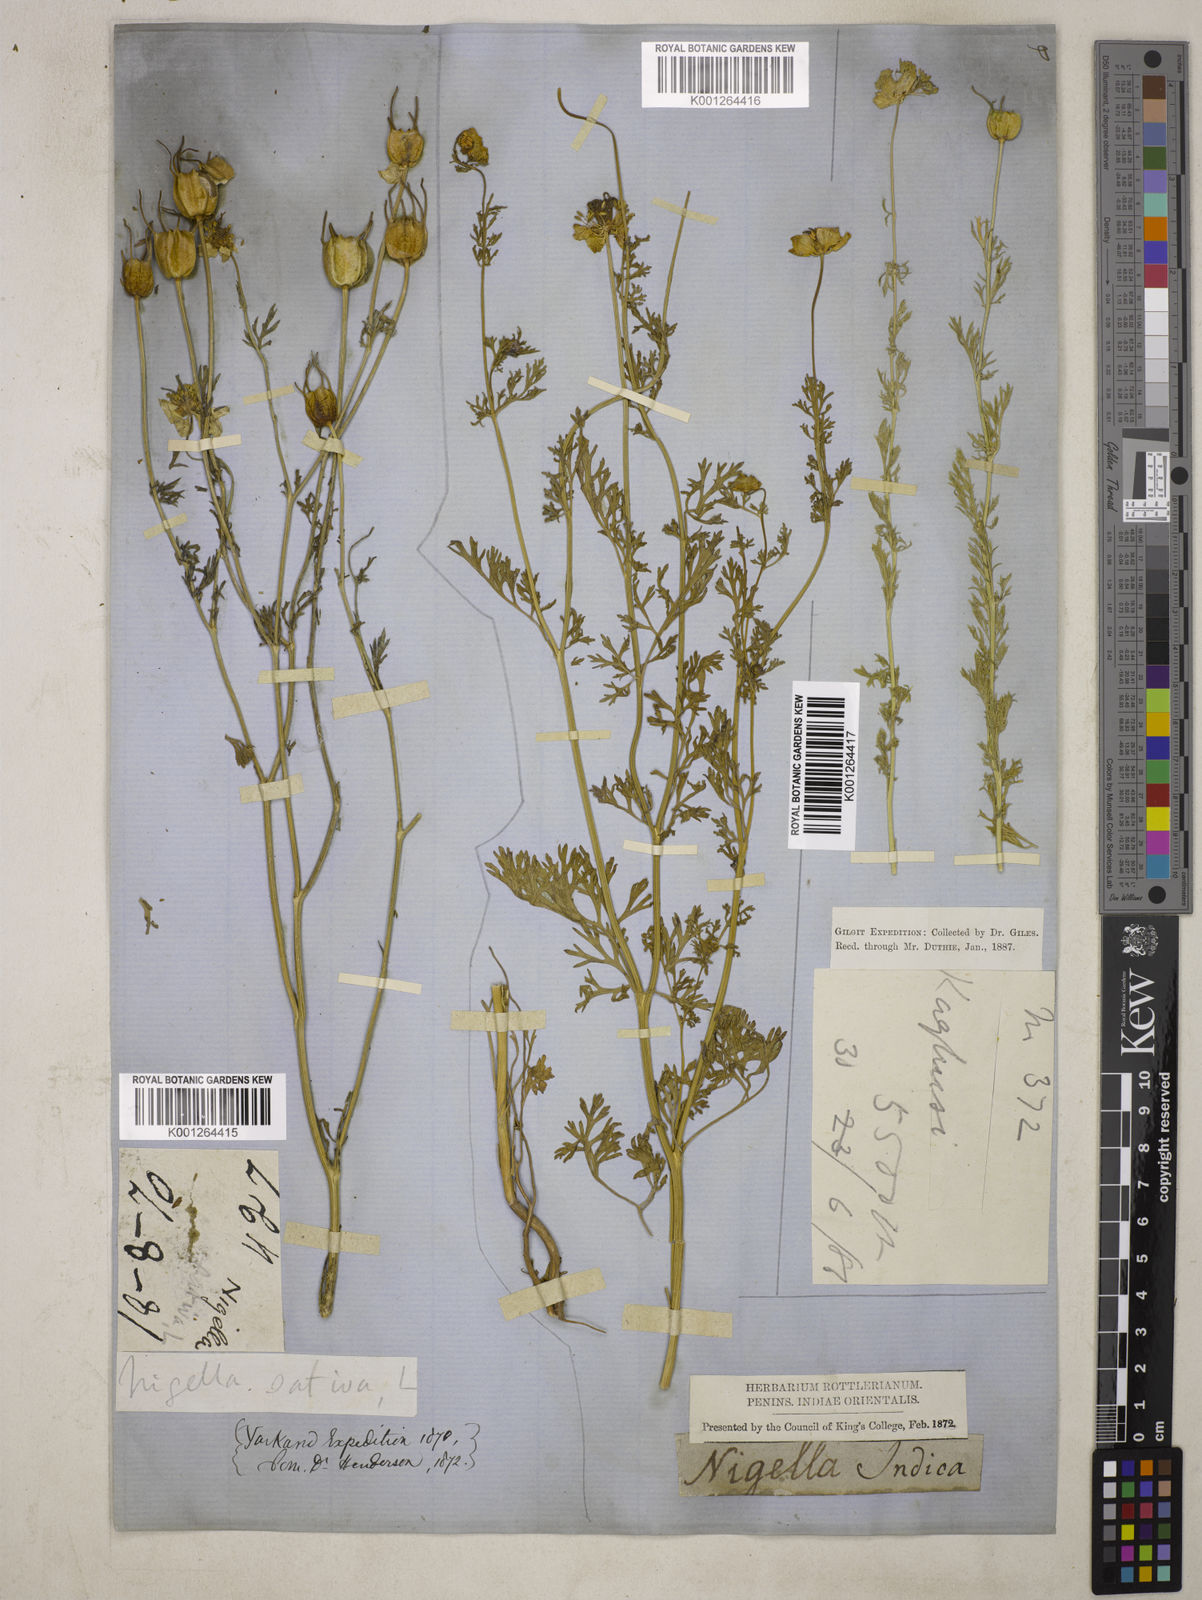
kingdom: Plantae
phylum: Tracheophyta
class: Magnoliopsida
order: Ranunculales
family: Ranunculaceae
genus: Nigella
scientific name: Nigella sativa
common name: Black-cumin
